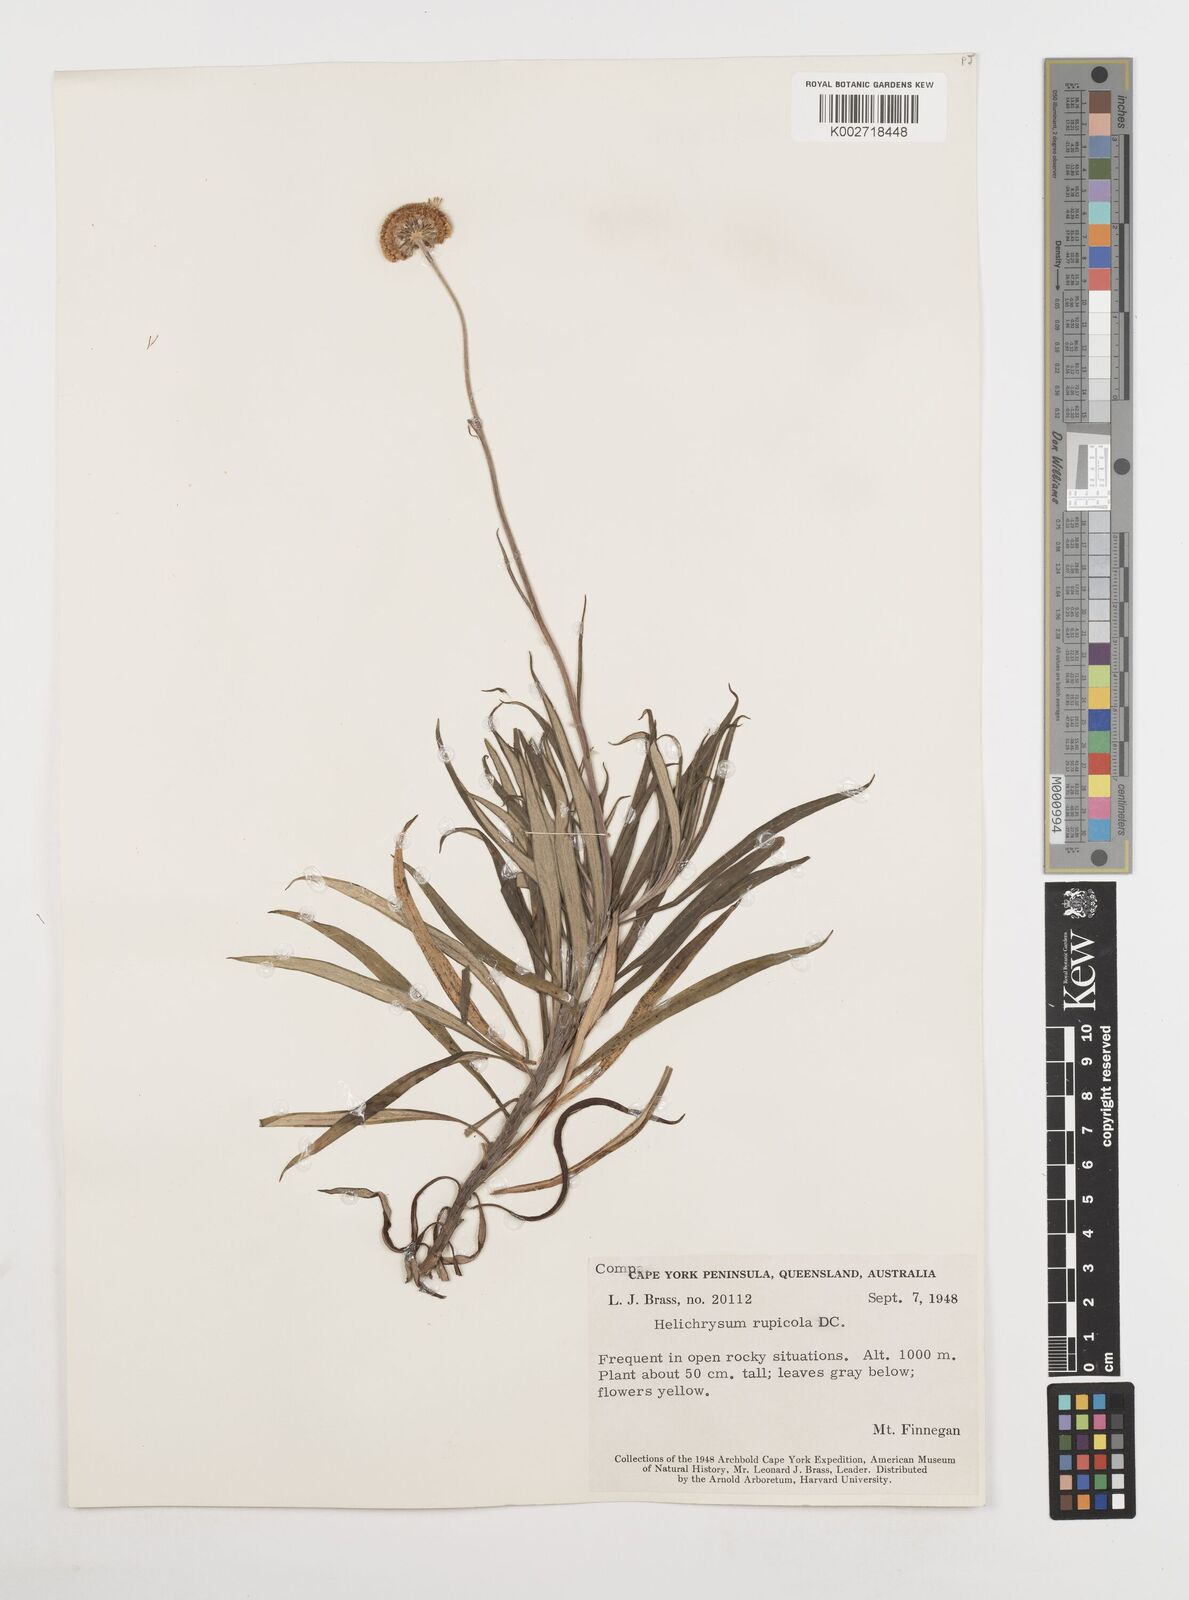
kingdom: Plantae
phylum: Tracheophyta
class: Magnoliopsida
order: Asterales
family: Asteraceae
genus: Coronidium
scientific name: Coronidium rupicola
